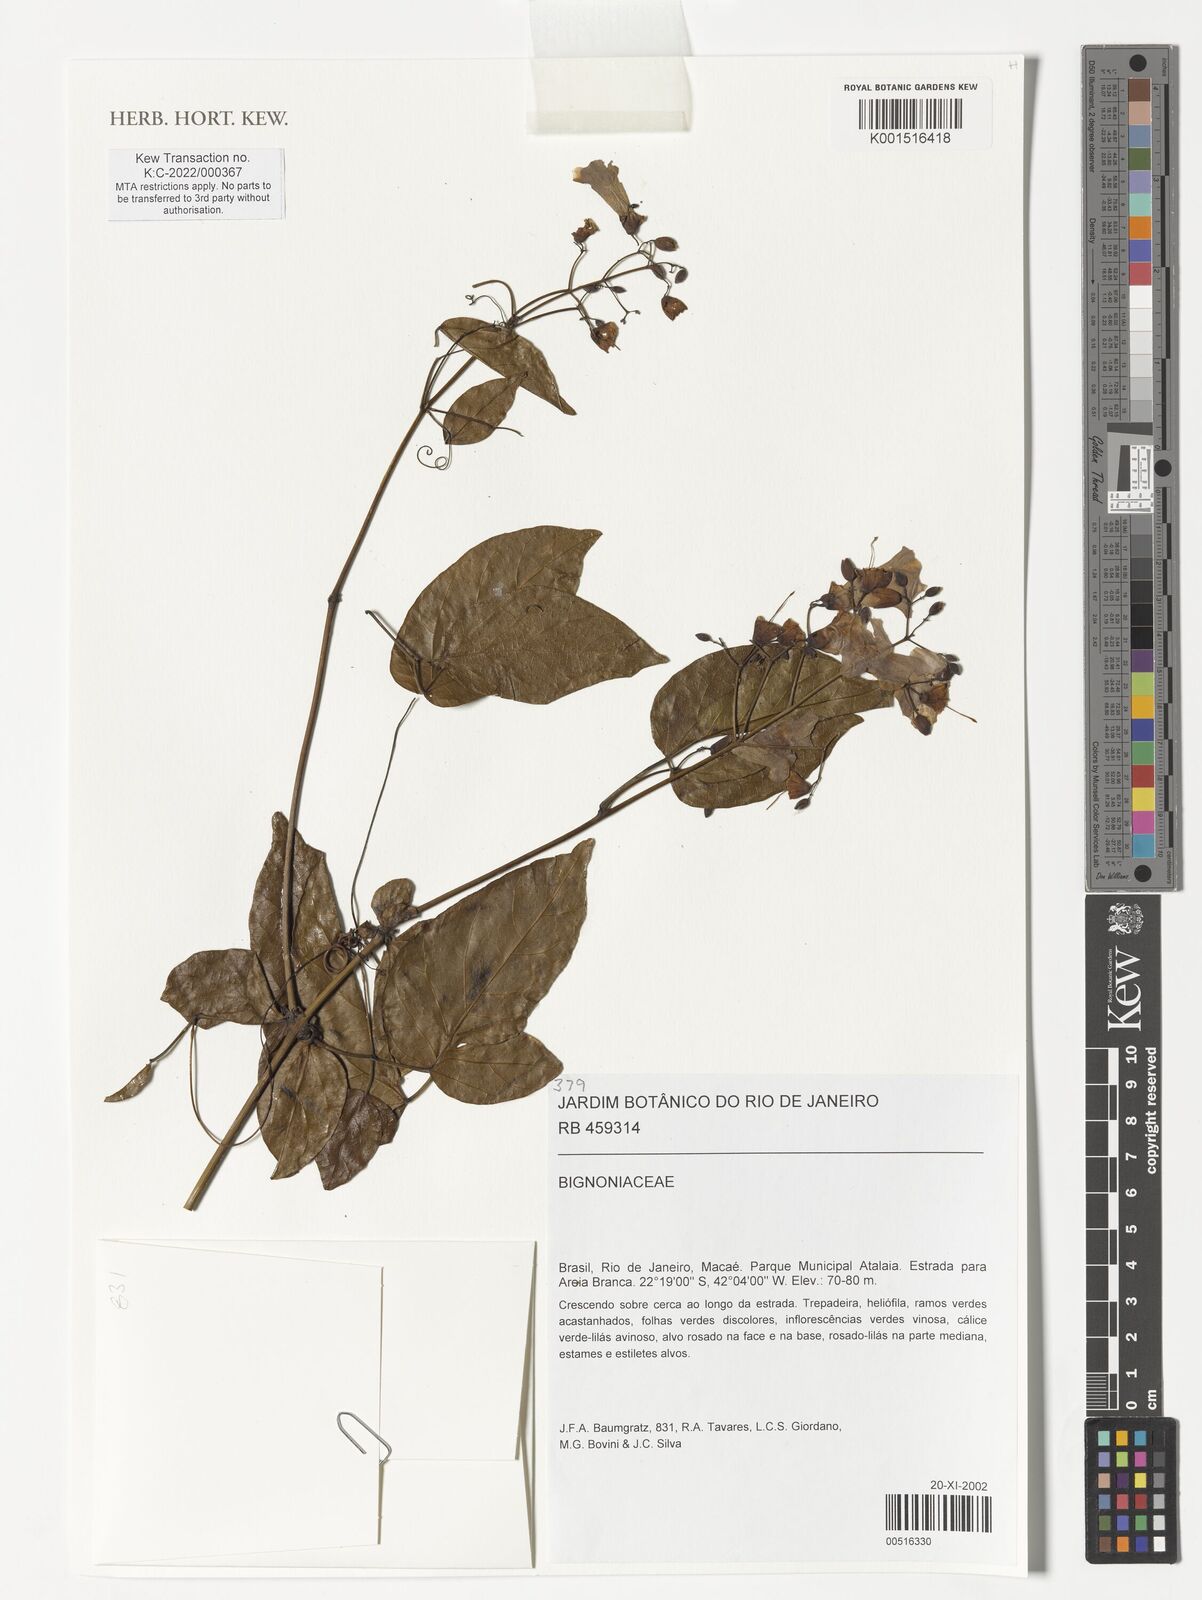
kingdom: Plantae
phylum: Tracheophyta
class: Magnoliopsida
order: Lamiales
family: Bignoniaceae
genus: Tanaecium
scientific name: Tanaecium selloi
